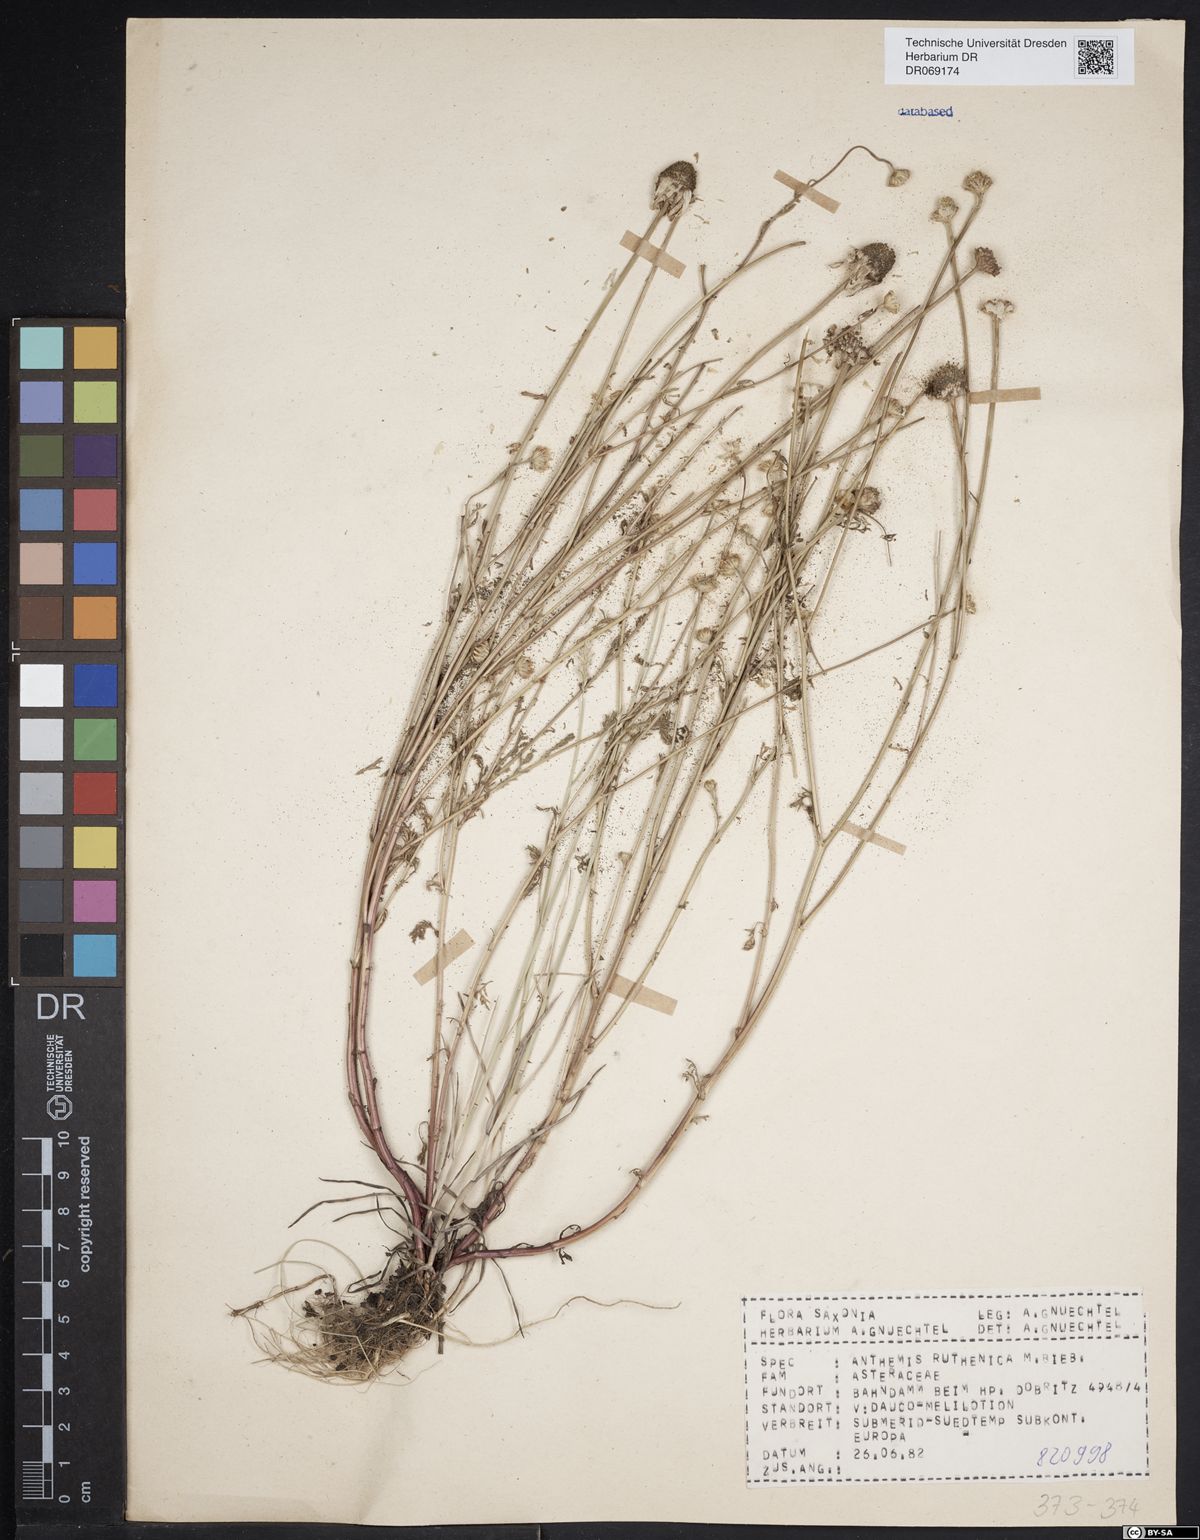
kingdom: Plantae
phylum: Tracheophyta
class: Magnoliopsida
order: Asterales
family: Asteraceae
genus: Anthemis
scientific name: Anthemis ruthenica
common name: Eastern chamomile
